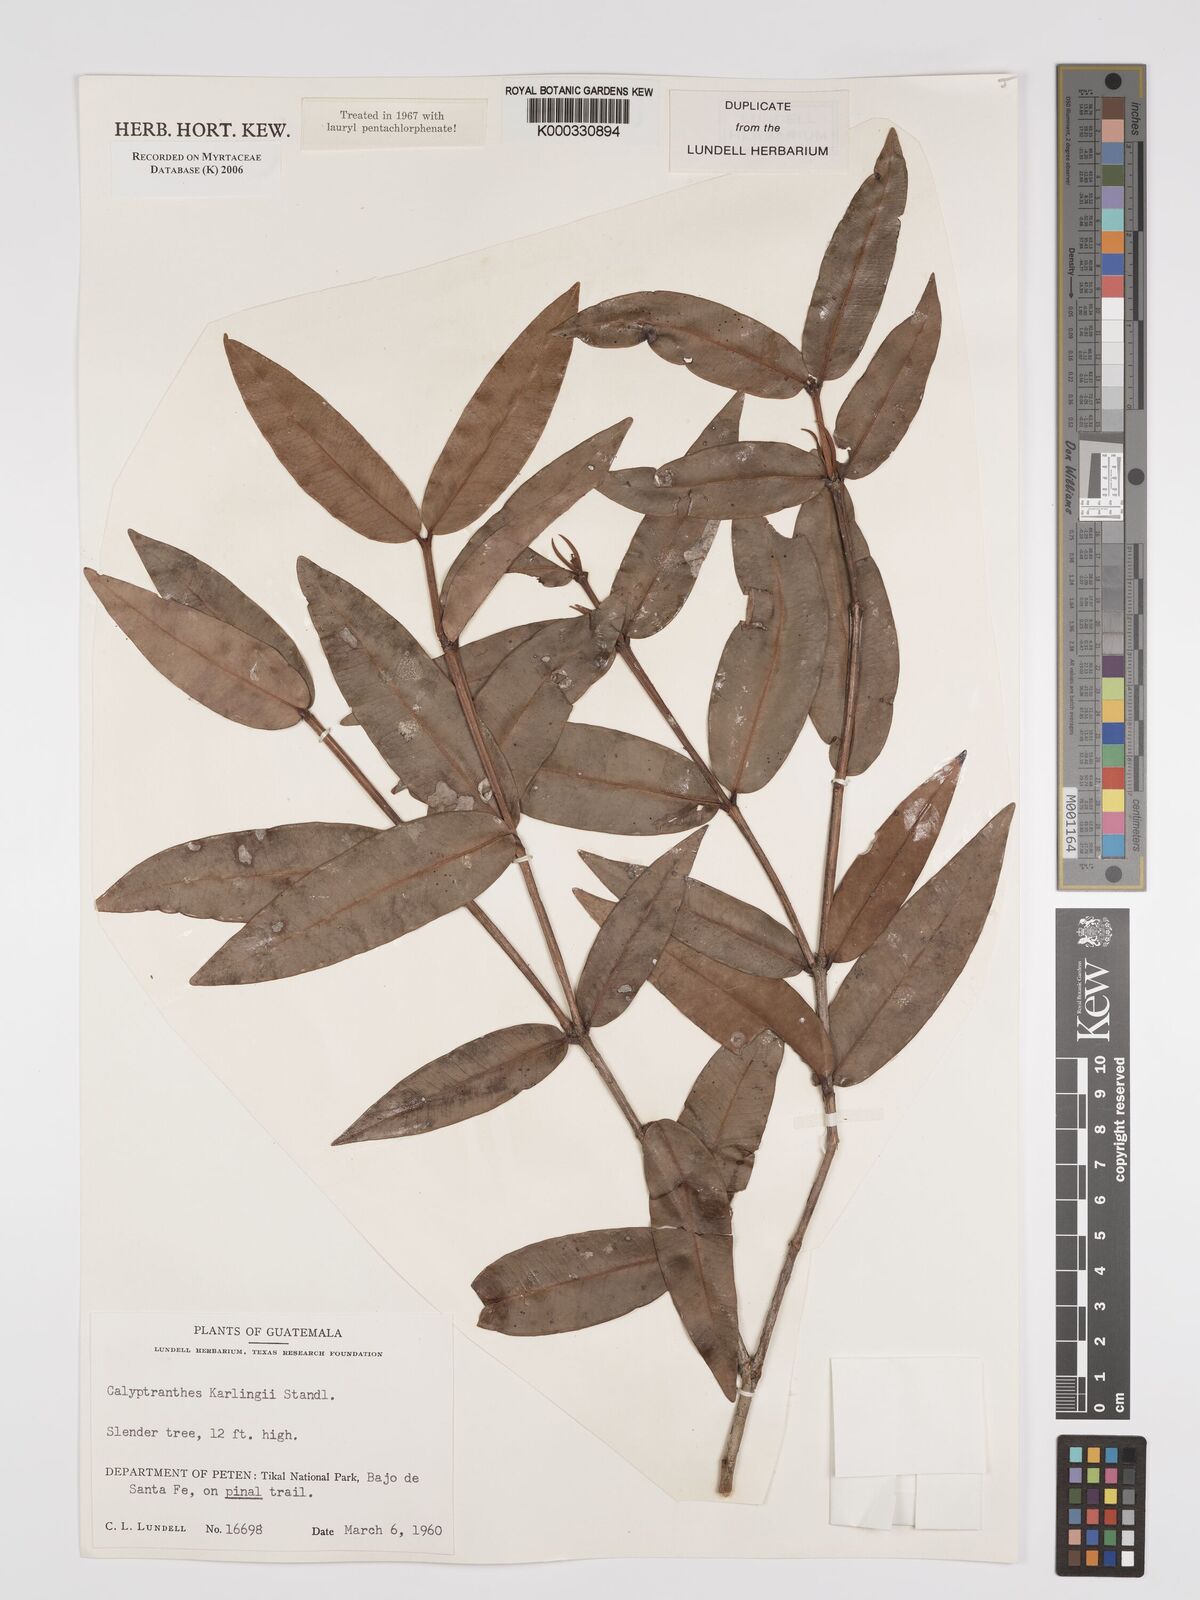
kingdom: Plantae
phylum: Tracheophyta
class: Magnoliopsida
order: Myrtales
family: Myrtaceae
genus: Myrcia
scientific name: Myrcia karlingii
